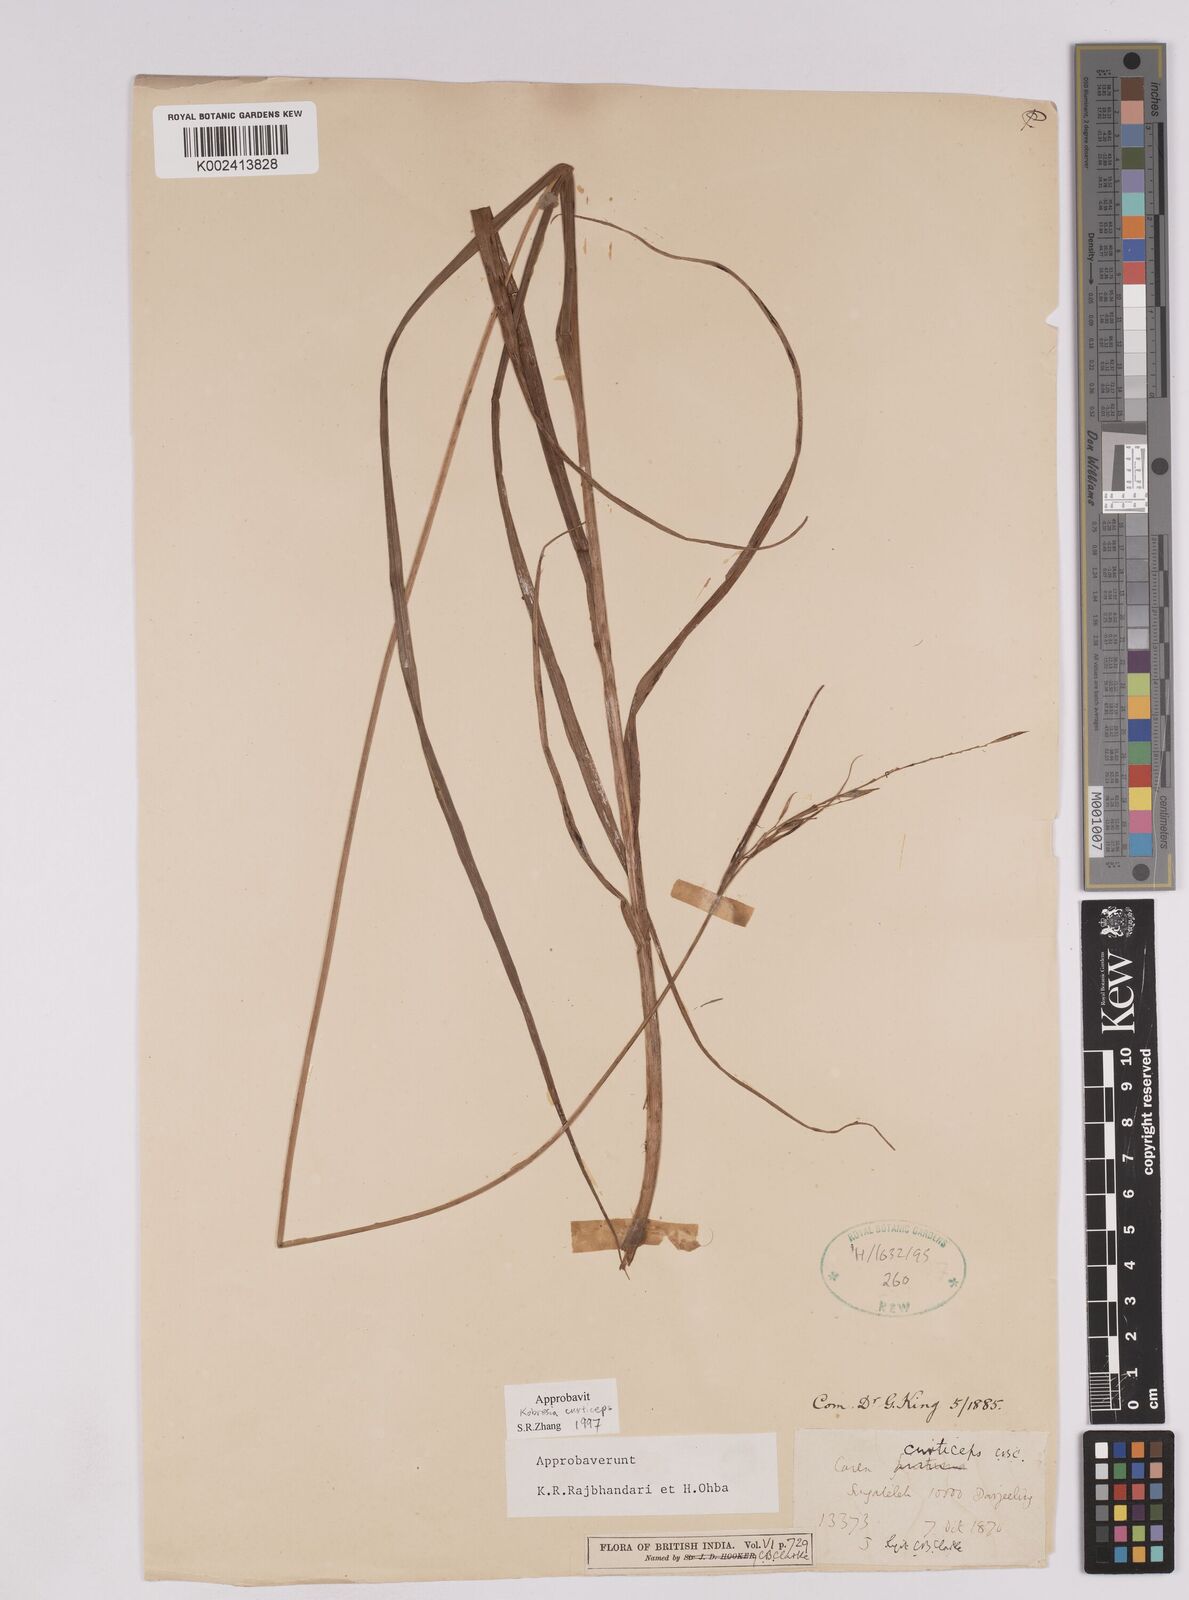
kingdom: Plantae
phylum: Tracheophyta
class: Liliopsida
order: Poales
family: Cyperaceae
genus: Carex
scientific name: Carex curticeps
